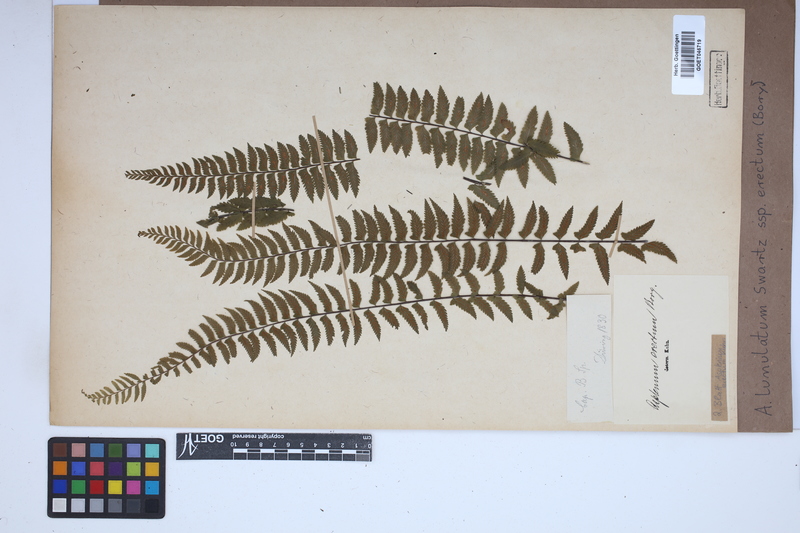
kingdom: Plantae
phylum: Tracheophyta
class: Polypodiopsida
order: Polypodiales
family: Aspleniaceae
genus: Asplenium
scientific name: Asplenium erectum
